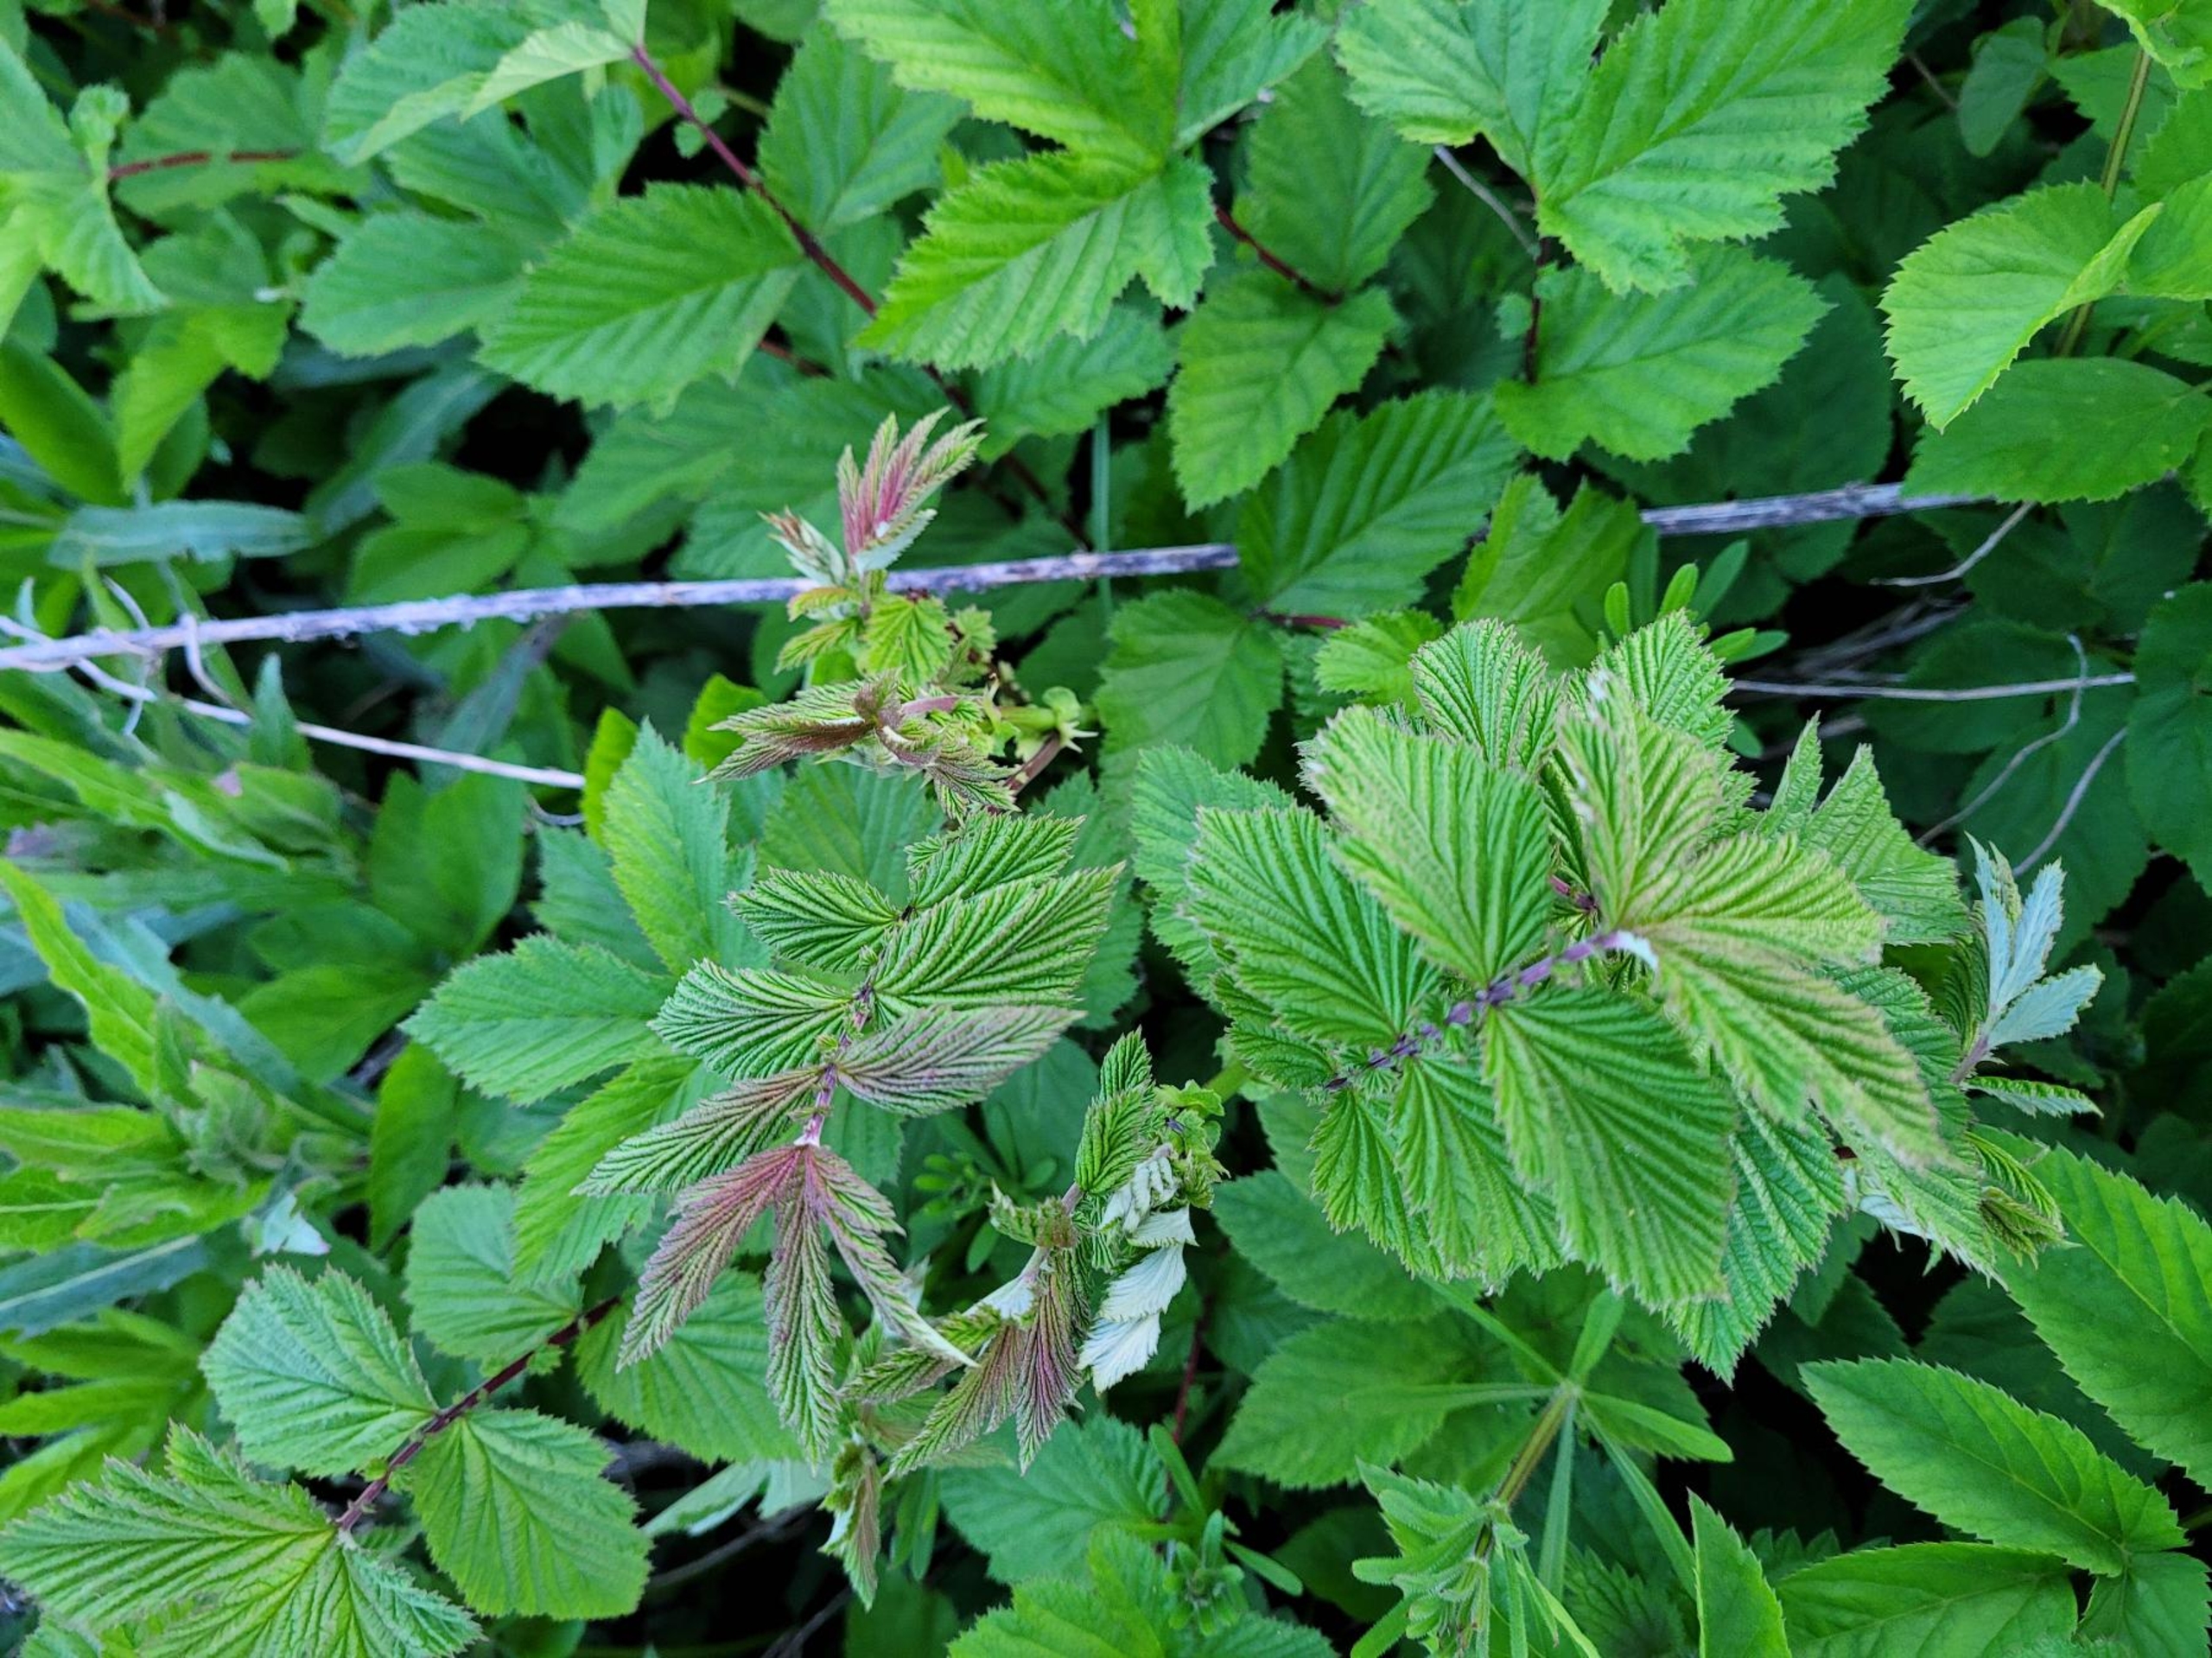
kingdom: Plantae
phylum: Tracheophyta
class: Magnoliopsida
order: Rosales
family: Rosaceae
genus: Filipendula
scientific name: Filipendula ulmaria
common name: Almindelig mjødurt
